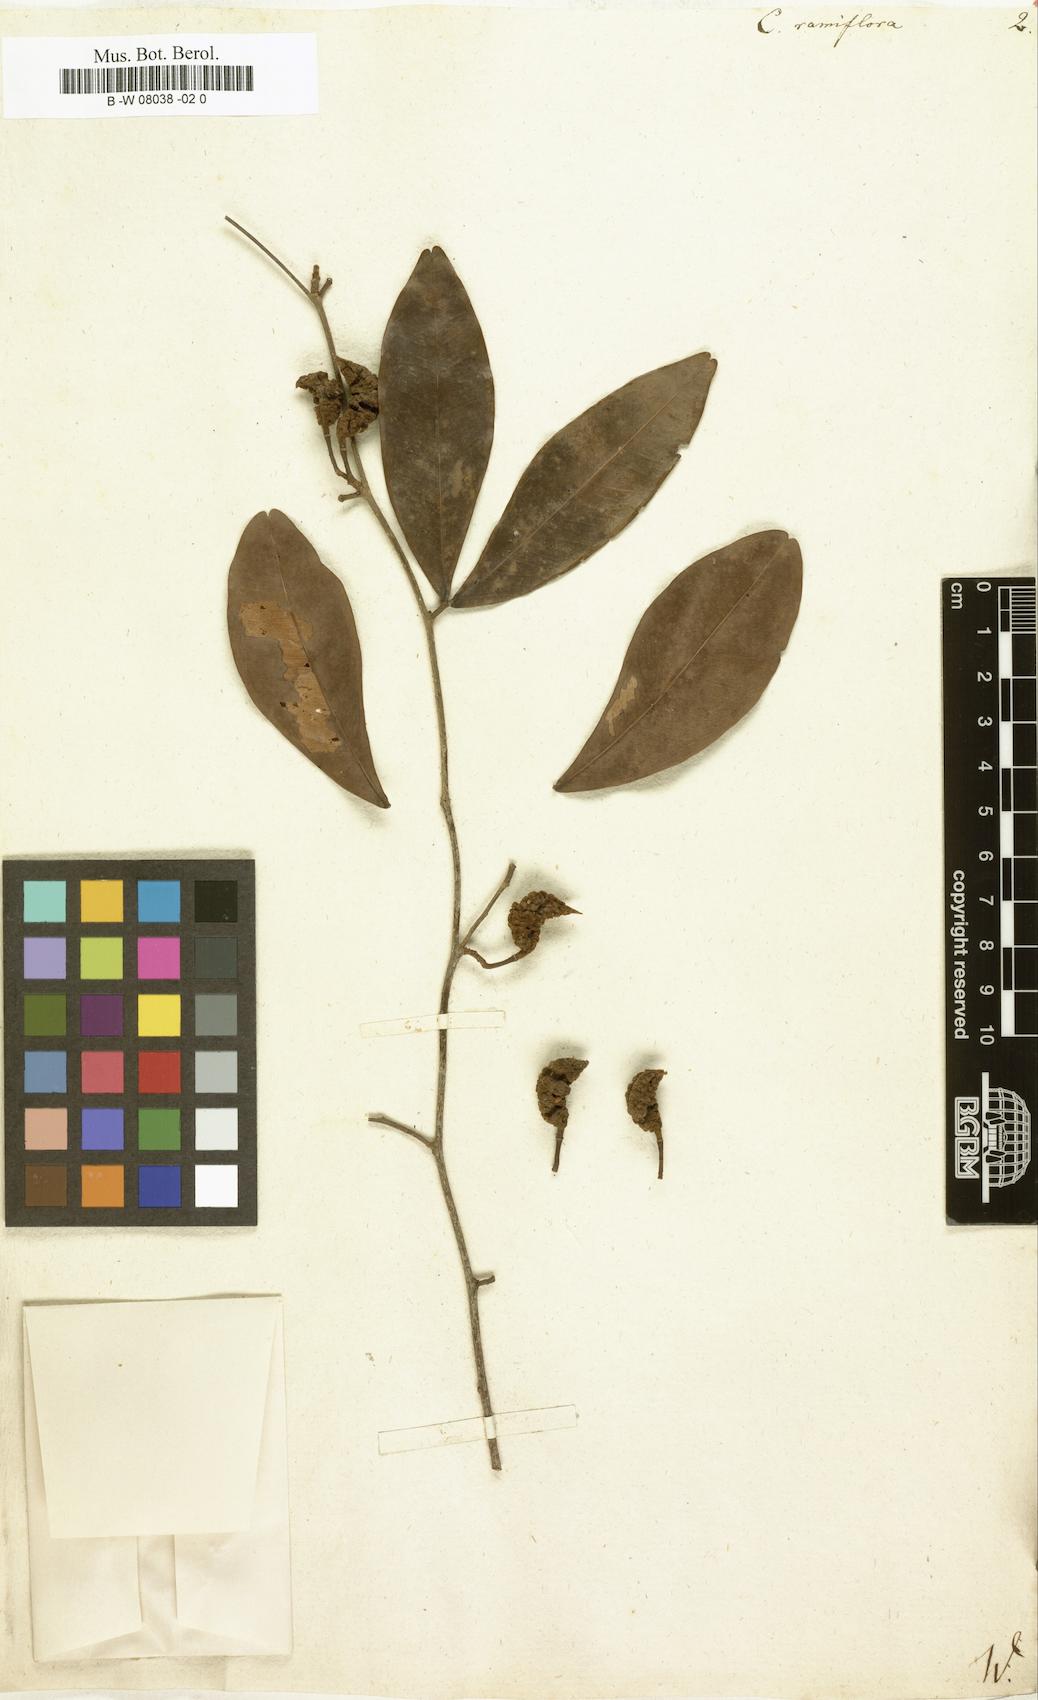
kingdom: Plantae
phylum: Tracheophyta
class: Magnoliopsida
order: Fabales
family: Fabaceae
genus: Cynometra
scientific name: Cynometra ramiflora
